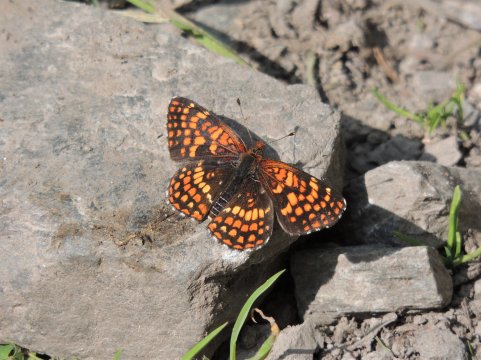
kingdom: Animalia
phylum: Arthropoda
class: Insecta
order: Lepidoptera
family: Nymphalidae
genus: Chlosyne
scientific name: Chlosyne palla
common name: Northern Checkerspot
